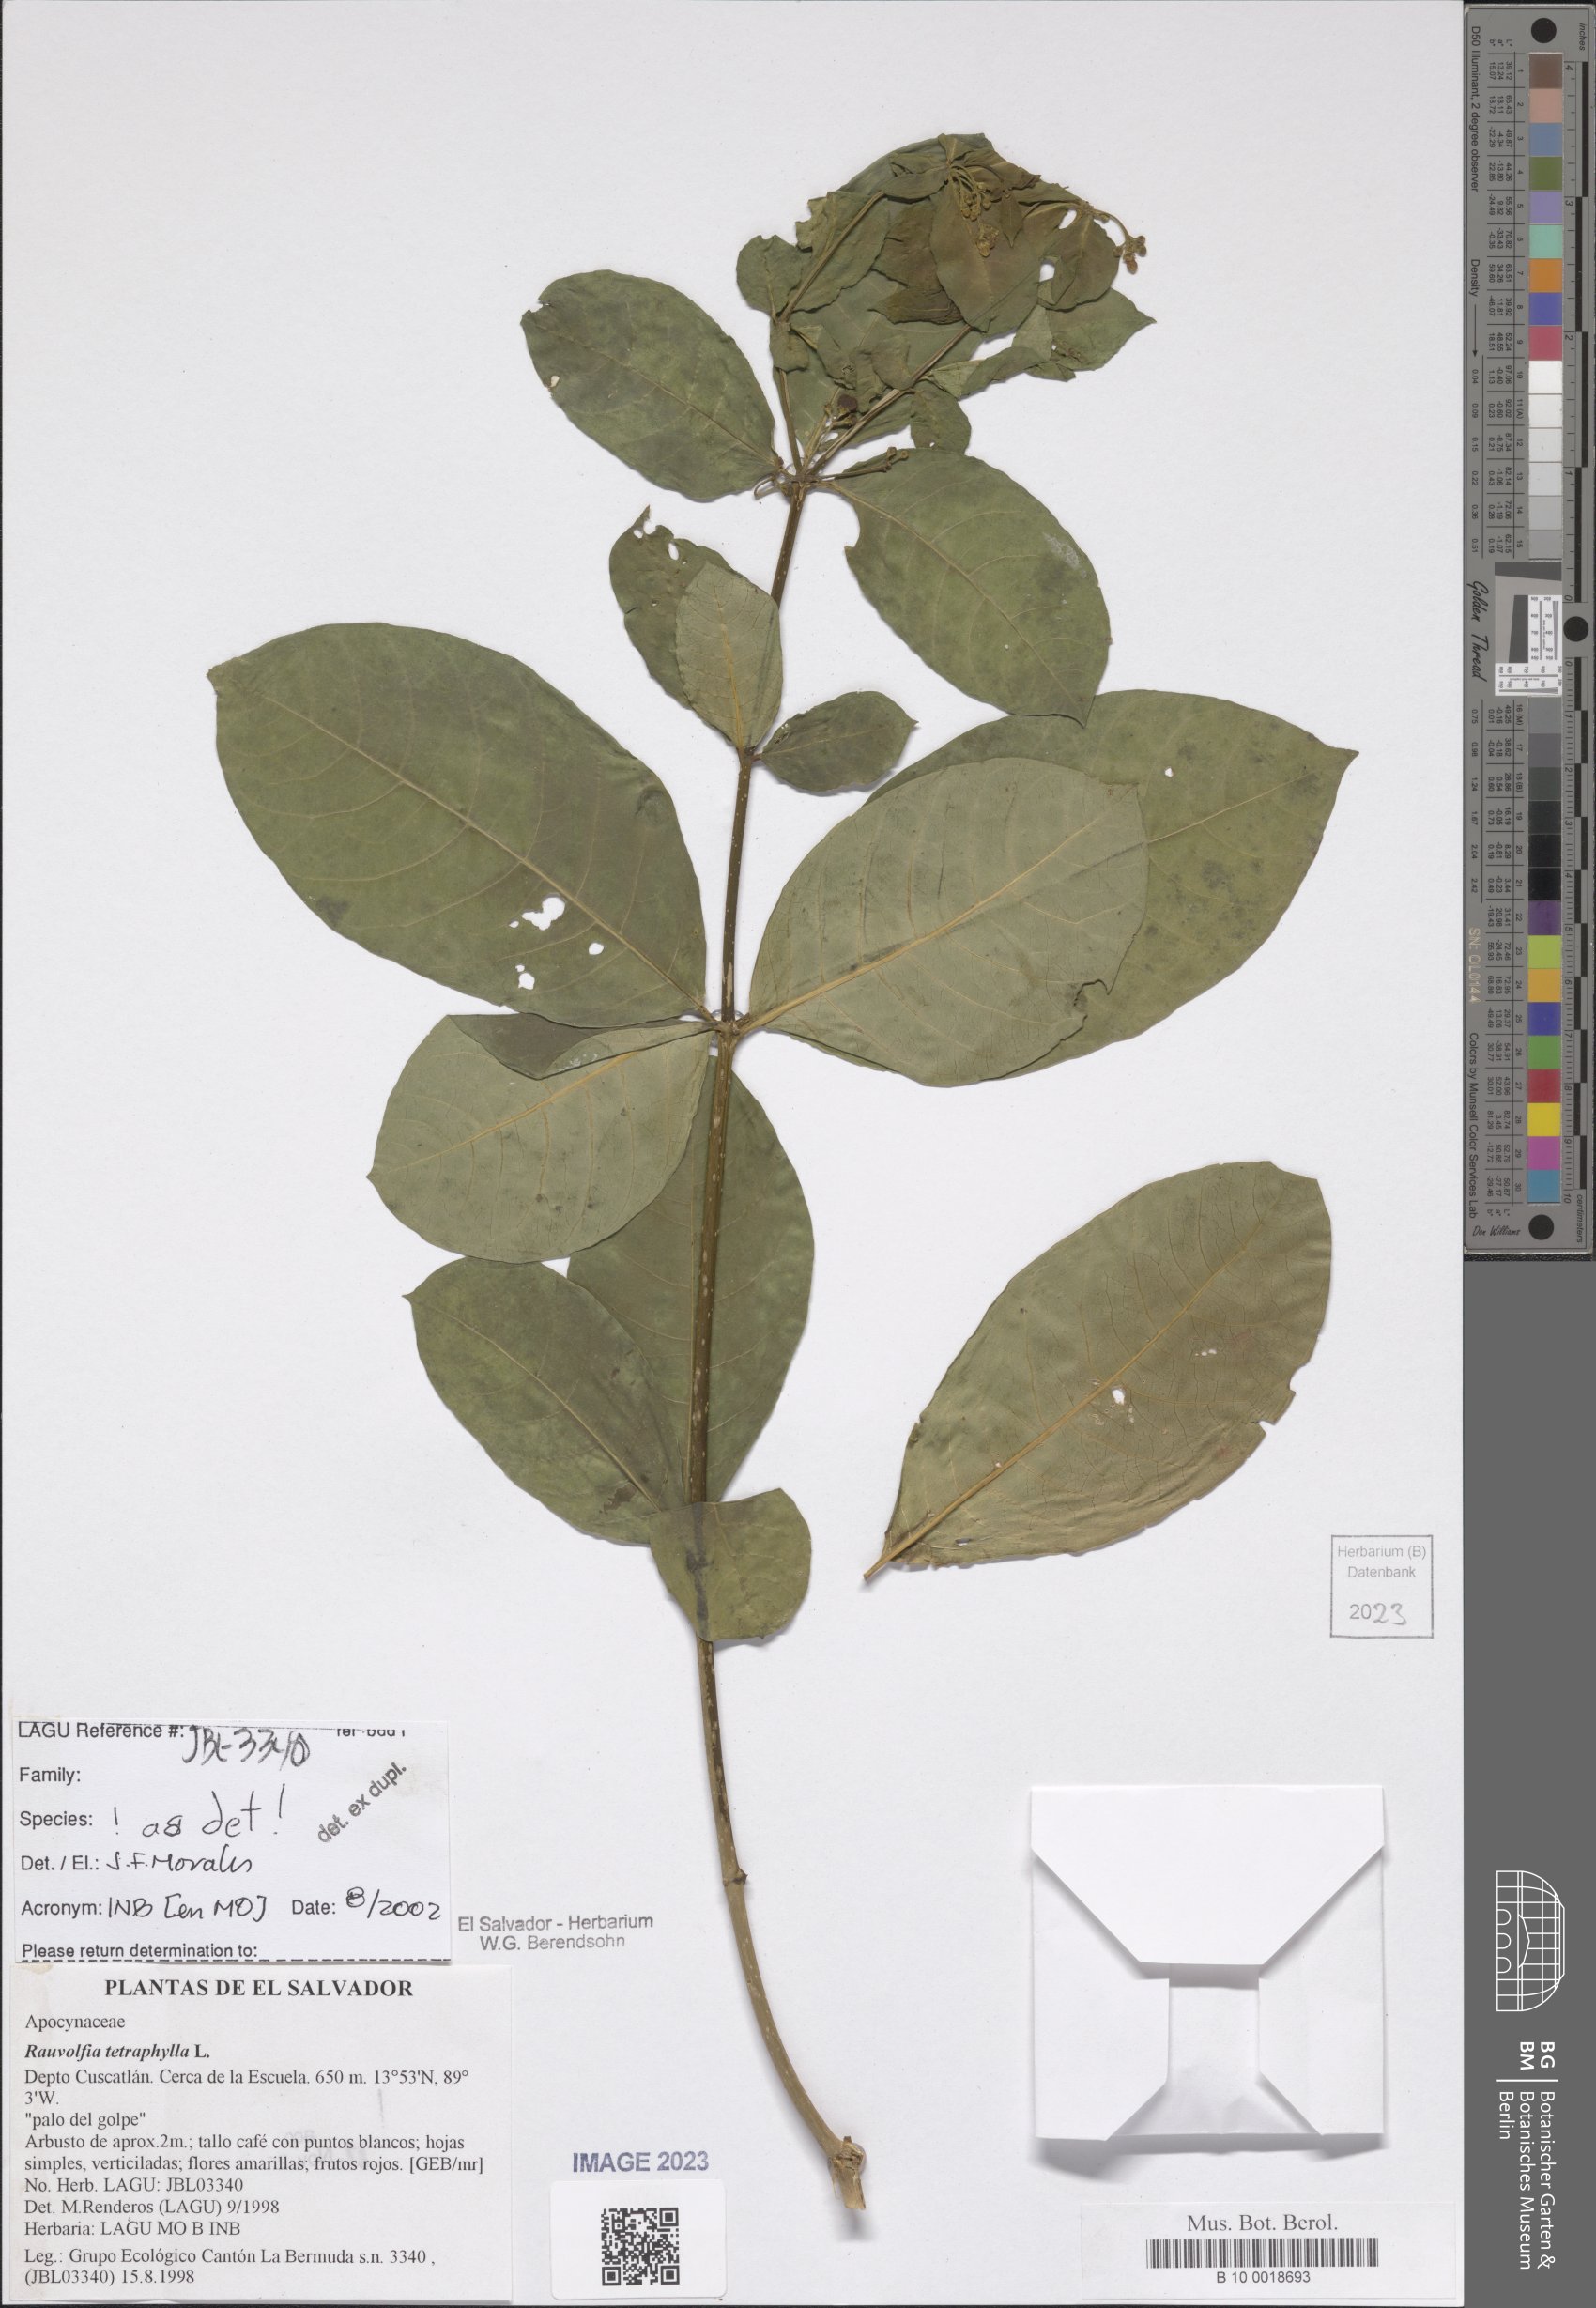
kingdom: Plantae
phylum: Tracheophyta
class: Magnoliopsida
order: Gentianales
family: Apocynaceae
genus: Rauvolfia
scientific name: Rauvolfia tetraphylla
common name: Four-leaf devil-pepper
